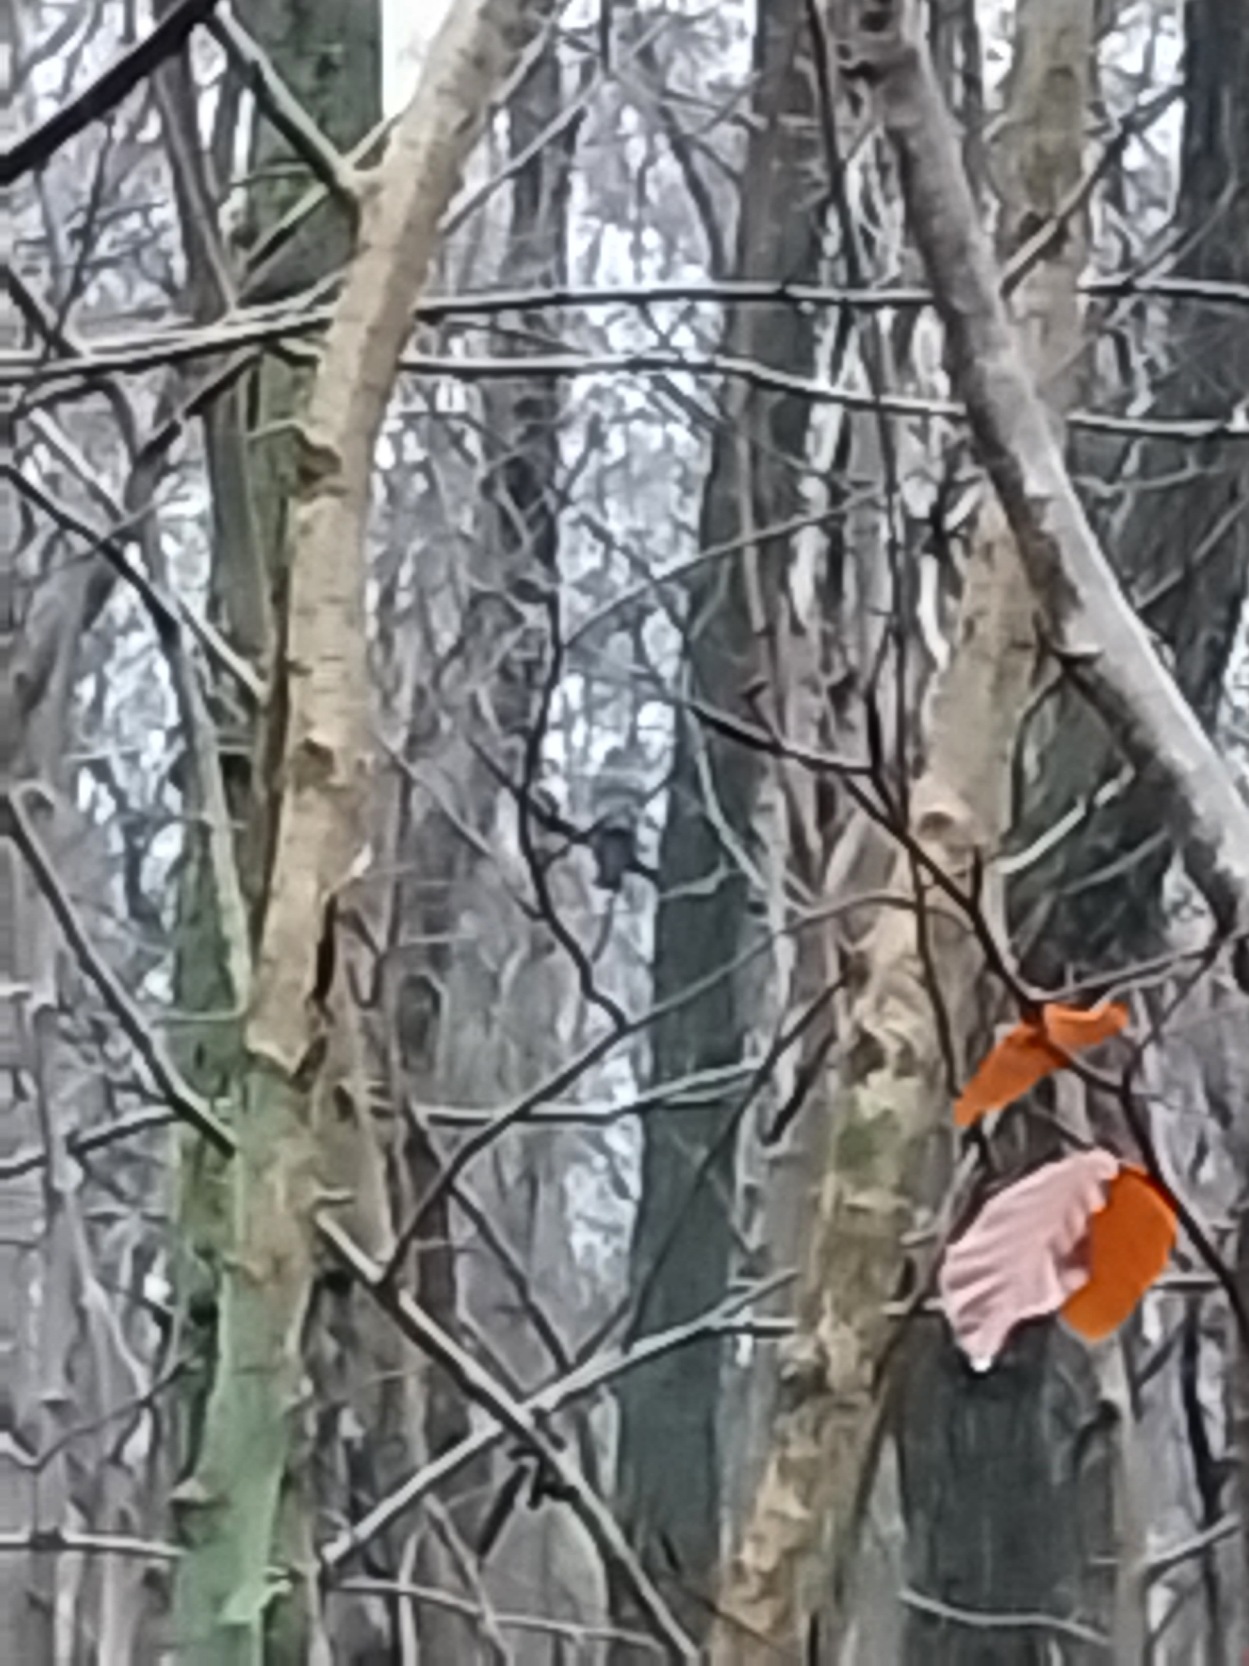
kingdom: Animalia
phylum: Chordata
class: Aves
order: Accipitriformes
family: Accipitridae
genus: Accipiter
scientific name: Accipiter nisus
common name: Spurvehøg
